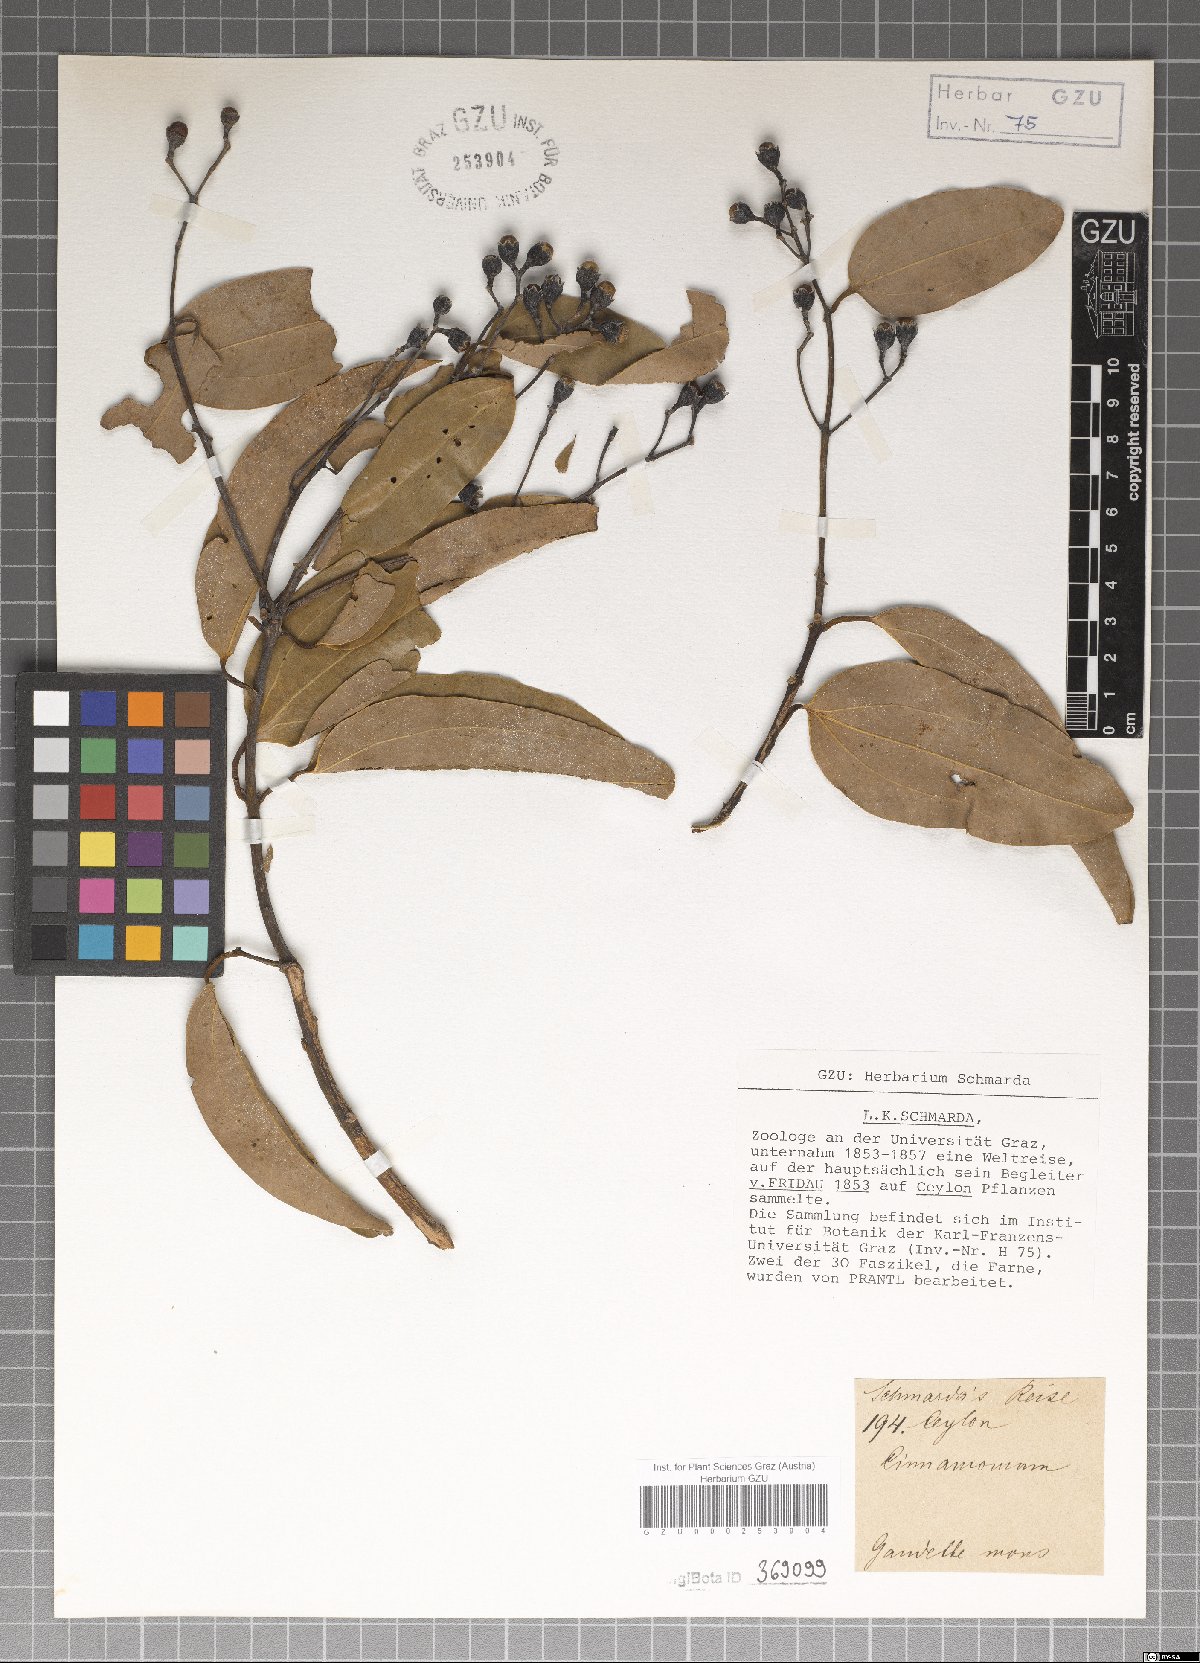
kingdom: Plantae
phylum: Tracheophyta
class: Magnoliopsida
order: Laurales
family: Lauraceae
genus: Cinnamomum
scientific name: Cinnamomum
